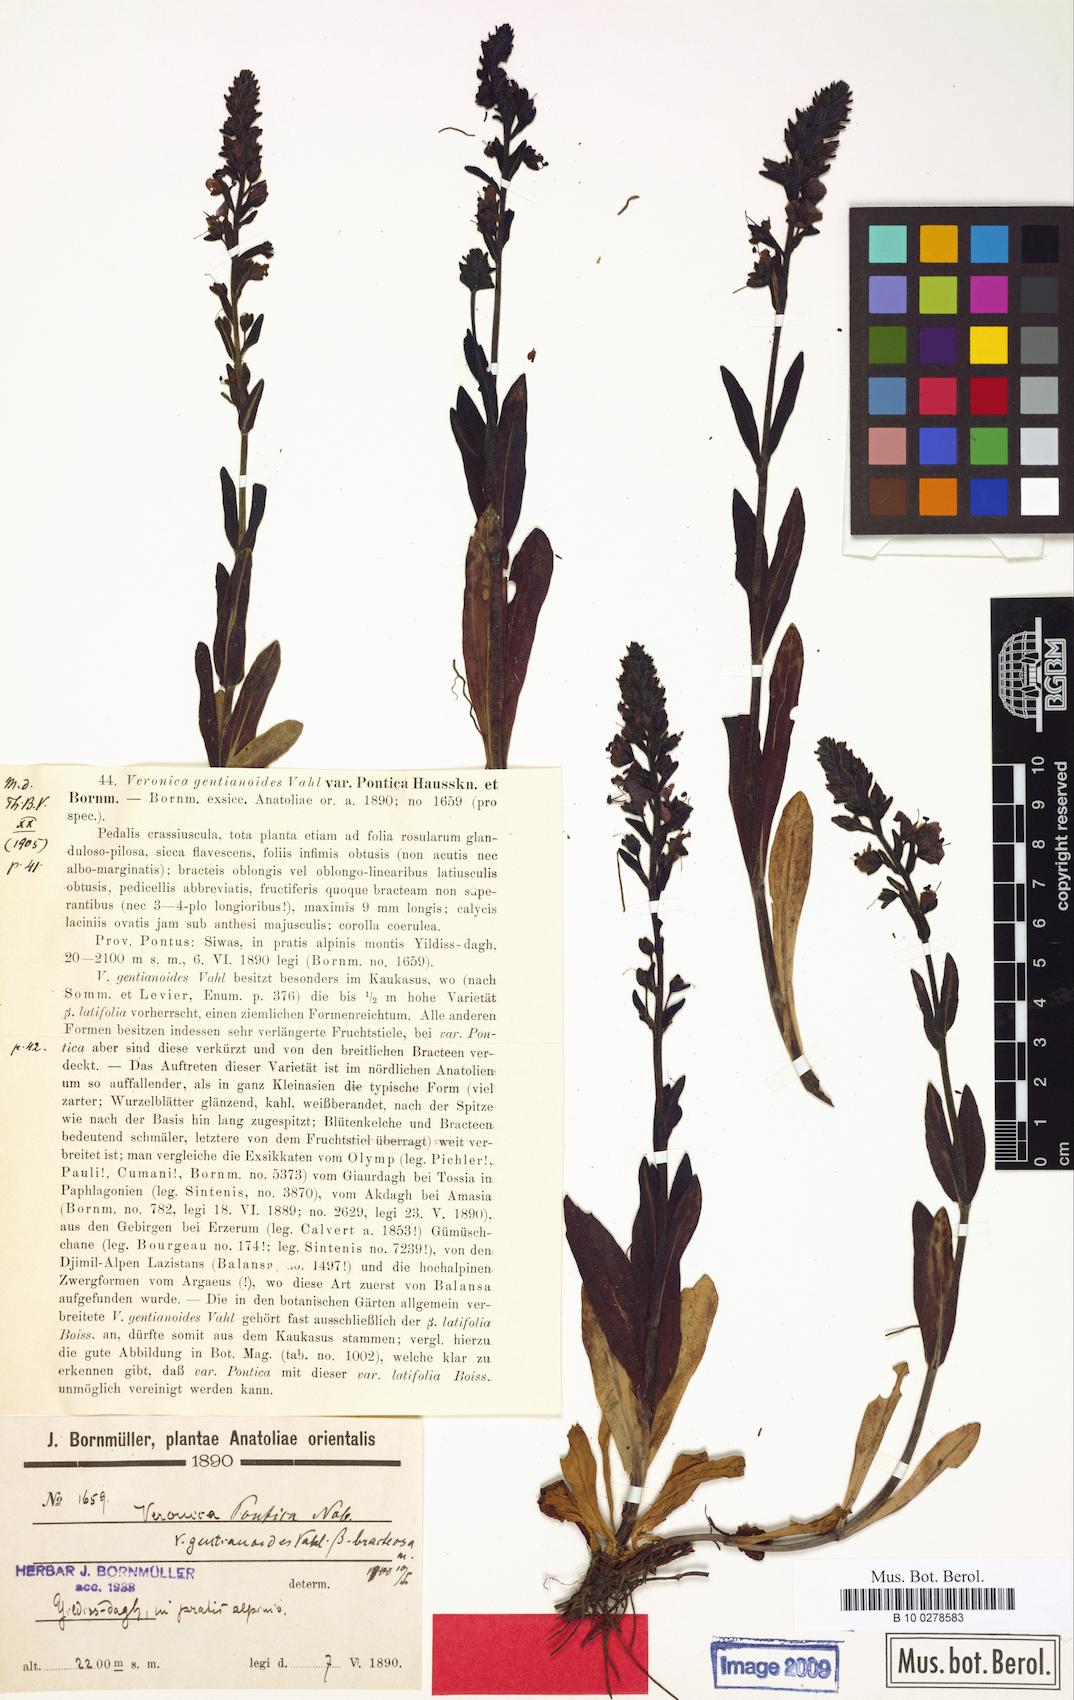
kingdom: Plantae
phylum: Tracheophyta
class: Magnoliopsida
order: Lamiales
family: Plantaginaceae
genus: Veronica
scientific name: Veronica gentianoides
